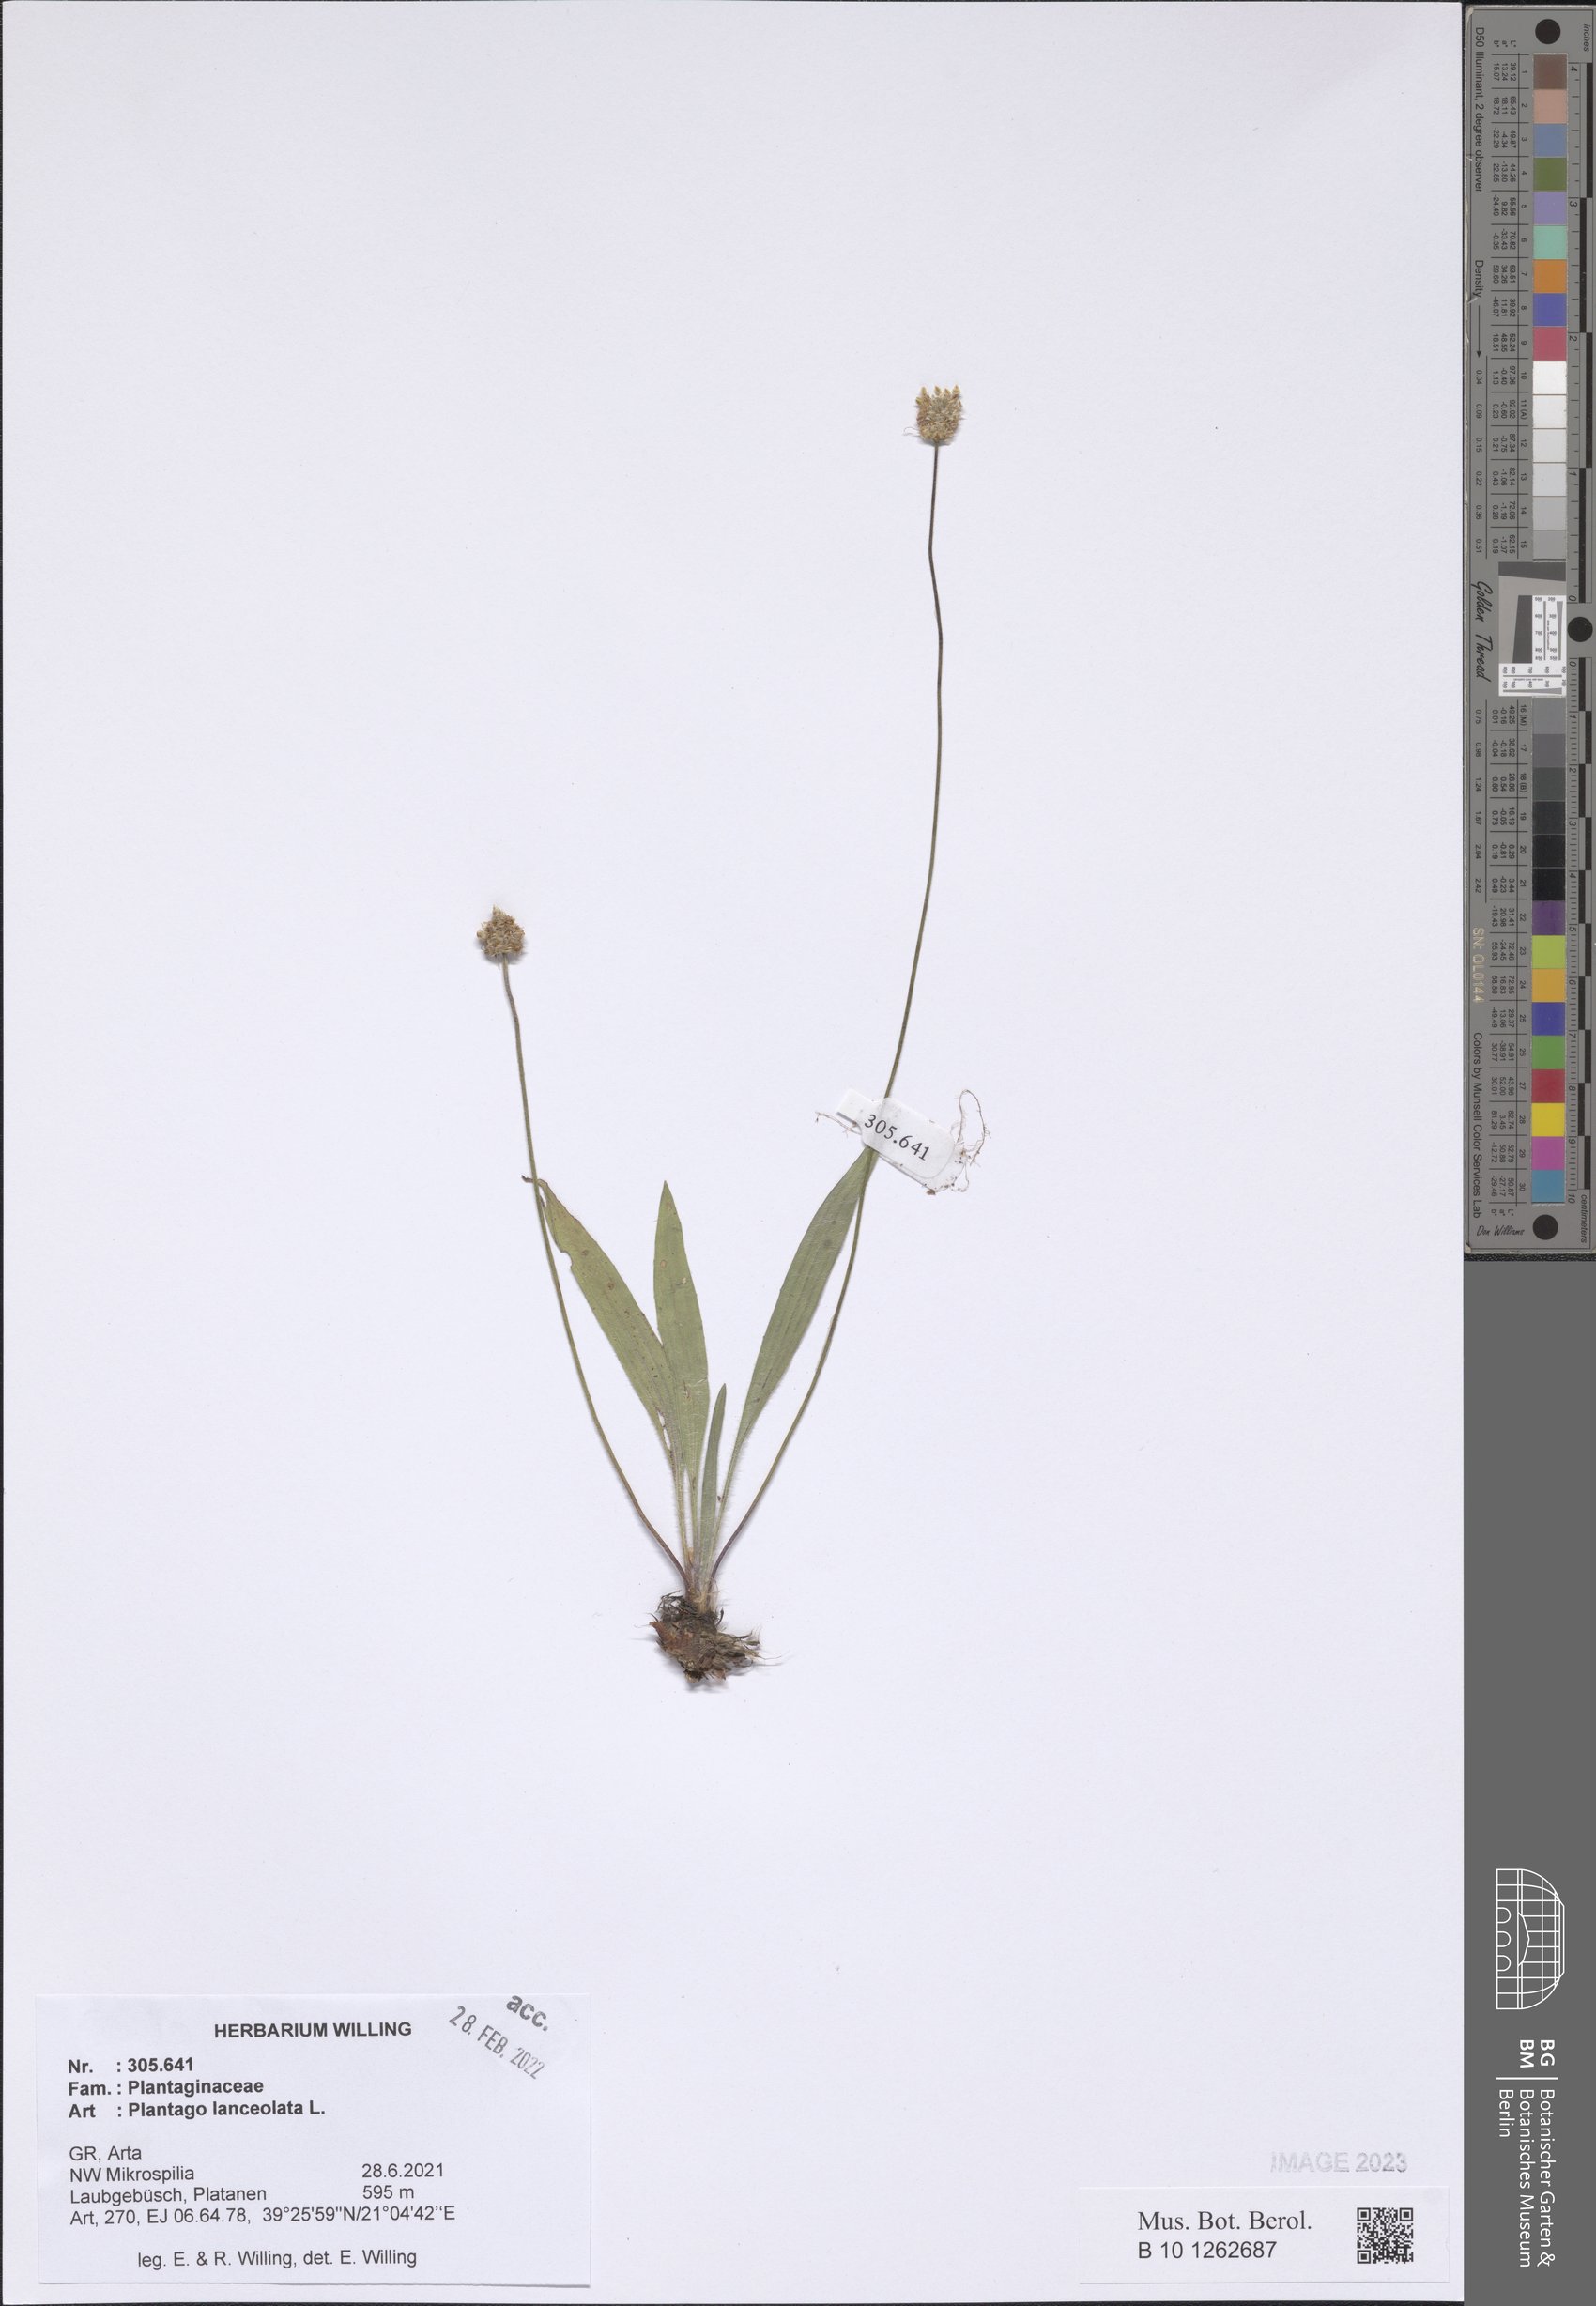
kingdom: Plantae
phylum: Tracheophyta
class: Magnoliopsida
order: Lamiales
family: Plantaginaceae
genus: Plantago
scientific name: Plantago lanceolata
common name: Ribwort plantain
